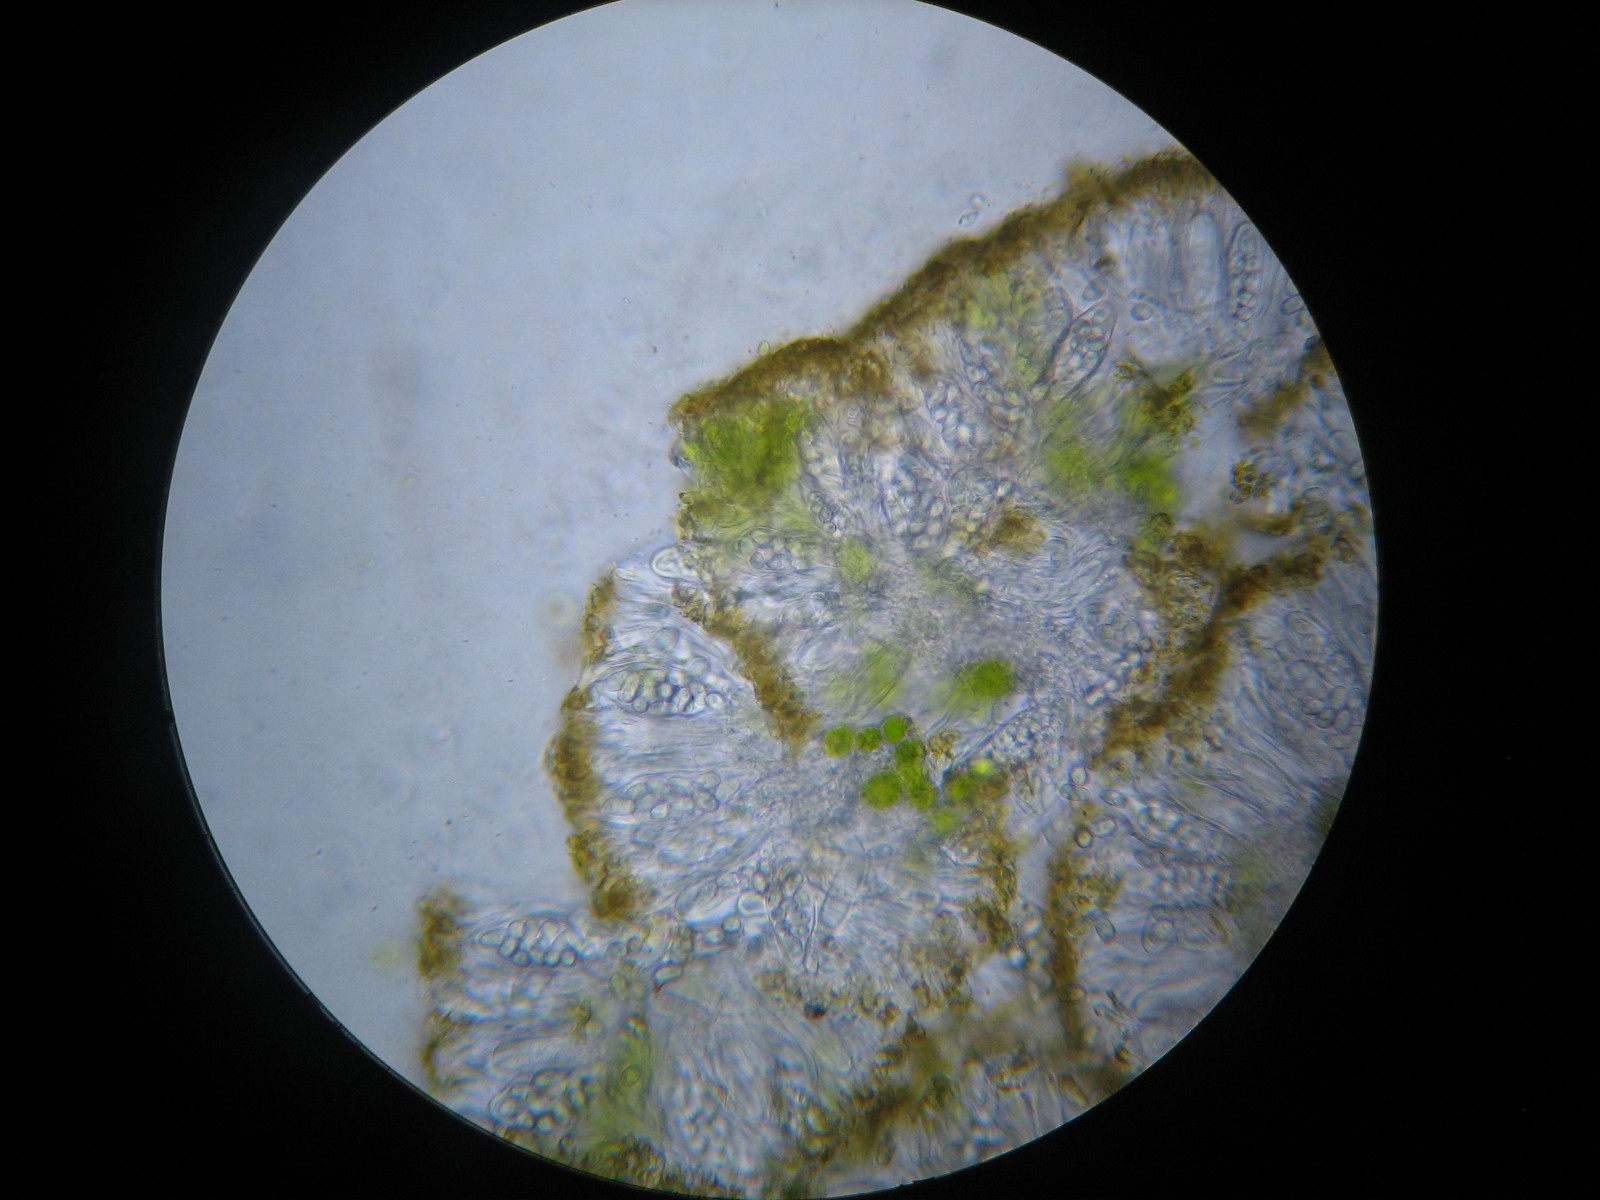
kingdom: Fungi
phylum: Ascomycota
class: Lecanoromycetes
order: Teloschistales
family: Teloschistaceae
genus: Athallia
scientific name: Athallia cerinella
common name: kvist-orangelav
